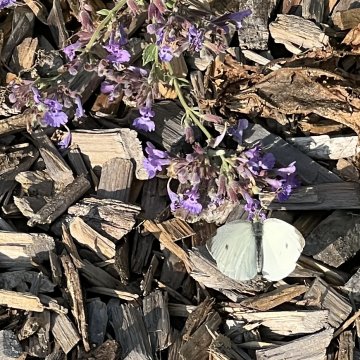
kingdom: Animalia
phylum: Arthropoda
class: Insecta
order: Lepidoptera
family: Pieridae
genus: Pieris
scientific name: Pieris rapae
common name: Cabbage White
